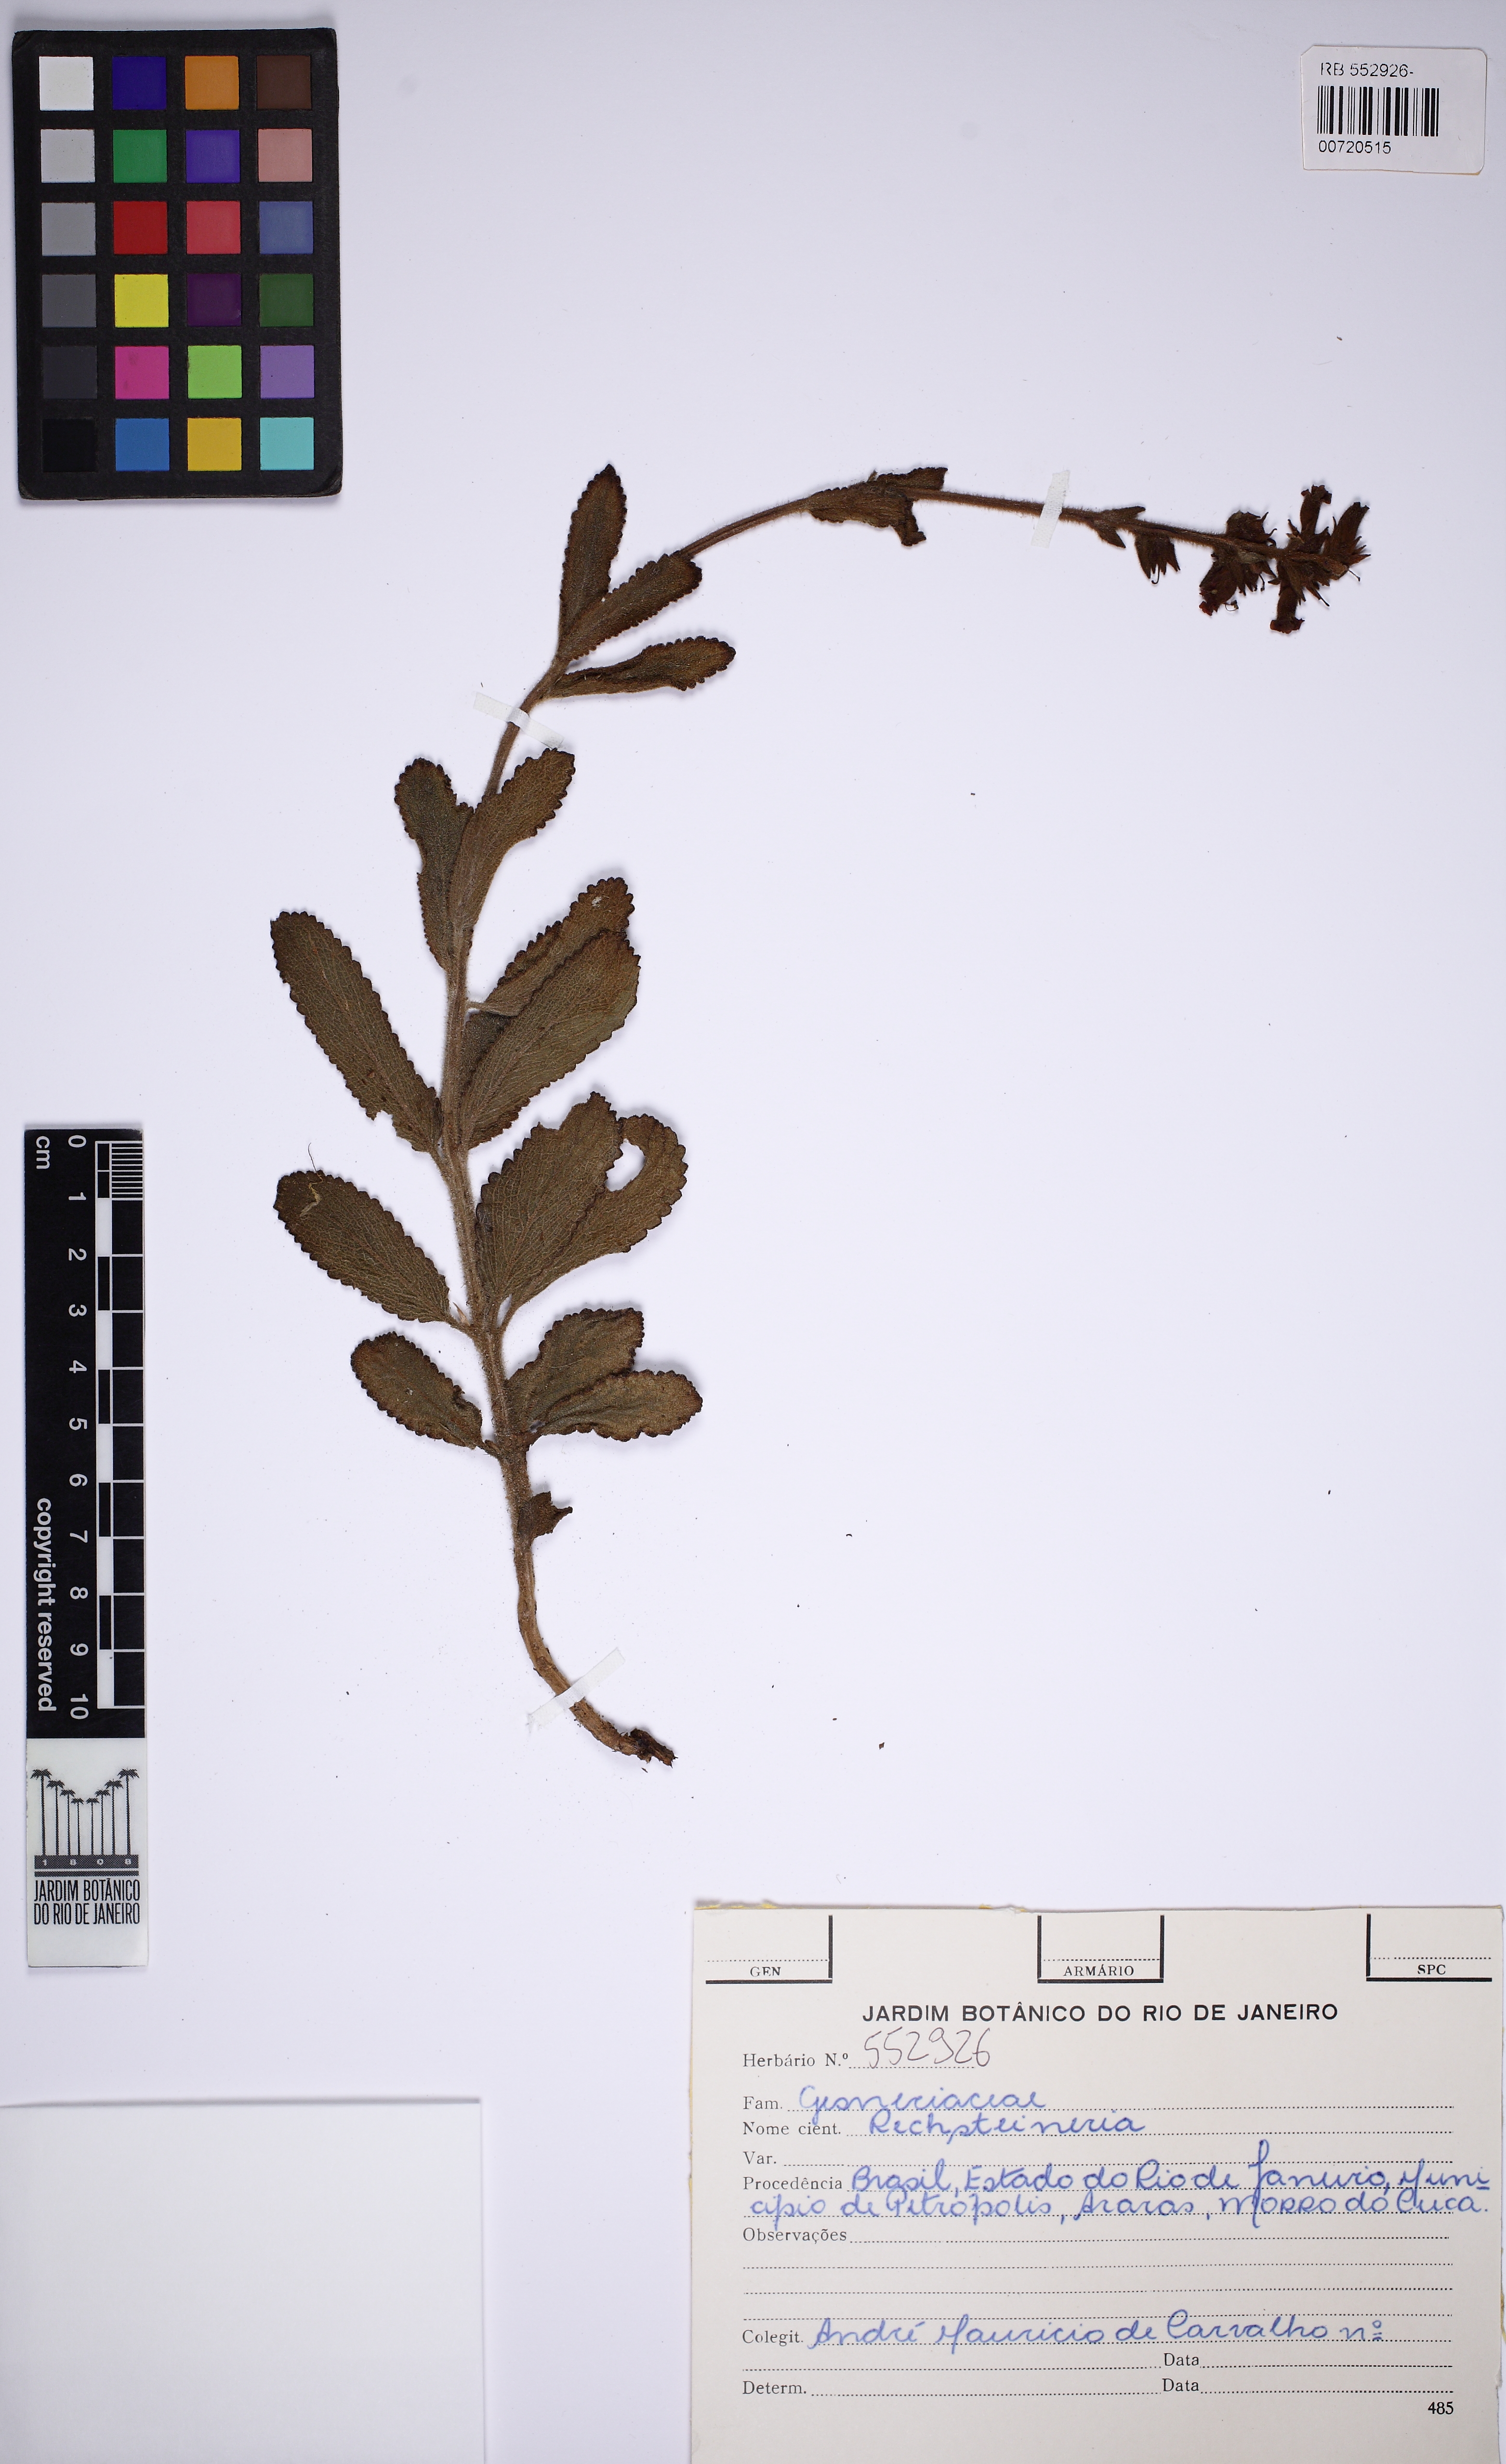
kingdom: Plantae
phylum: Tracheophyta
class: Magnoliopsida
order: Lamiales
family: Gesneriaceae
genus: Sinningia
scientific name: Sinningia
